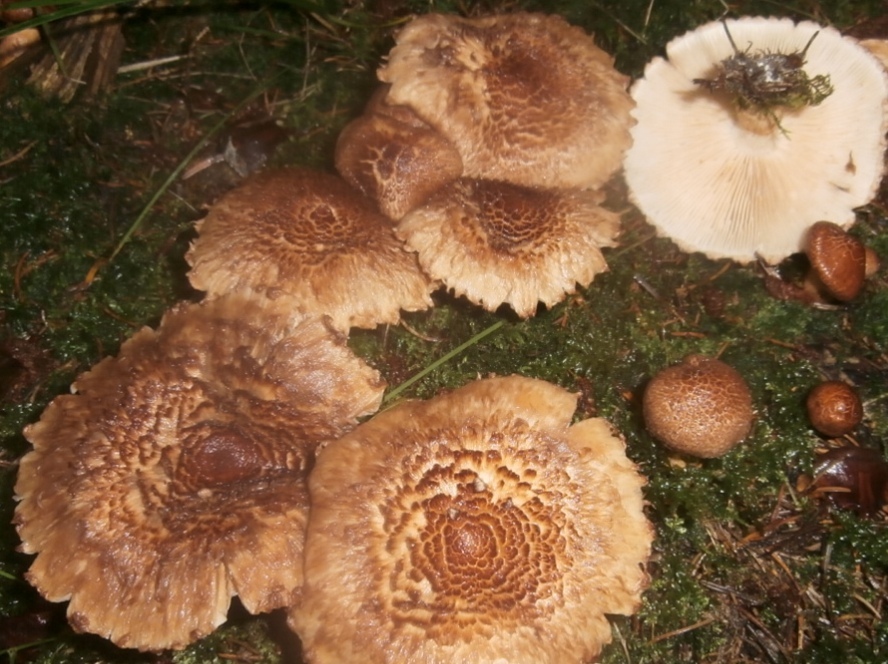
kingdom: Fungi
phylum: Basidiomycota
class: Agaricomycetes
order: Agaricales
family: Tricholomataceae
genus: Tricholoma
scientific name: Tricholoma vaccinum
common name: ko-ridderhat
